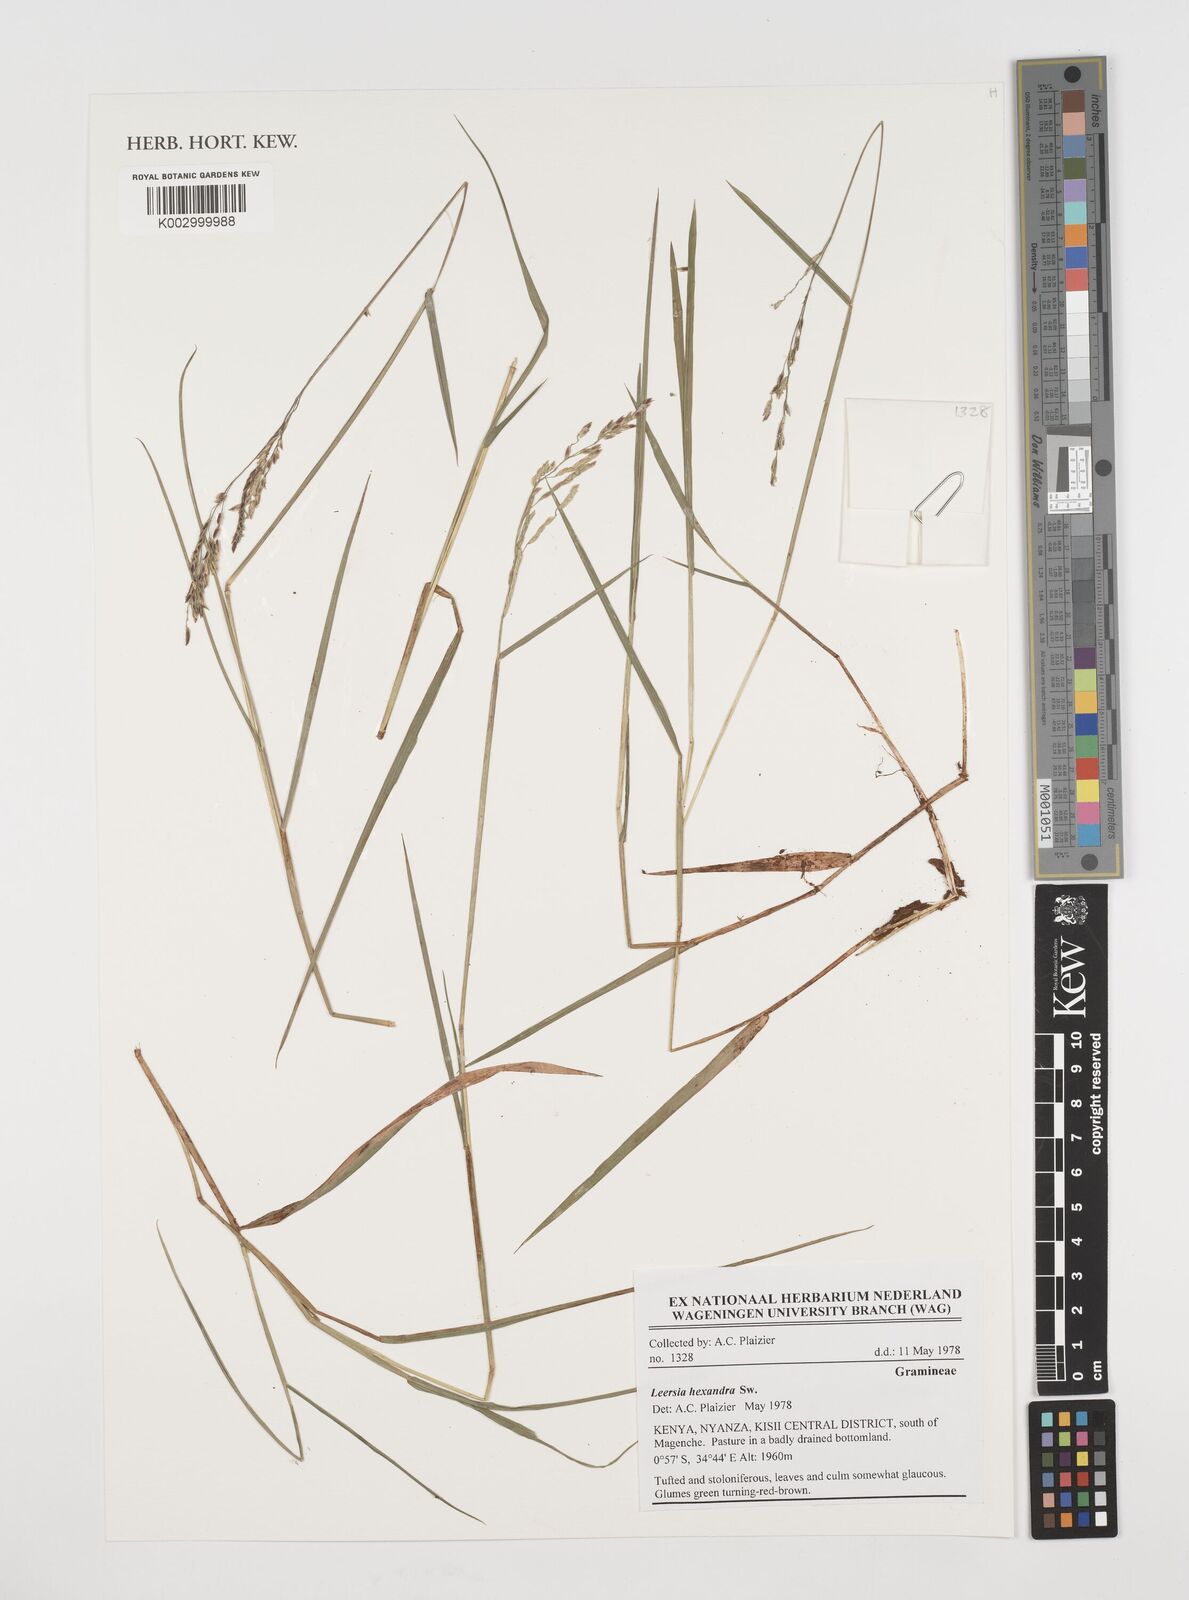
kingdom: Plantae
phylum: Tracheophyta
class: Liliopsida
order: Poales
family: Poaceae
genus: Leersia
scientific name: Leersia hexandra
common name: Southern cut grass
